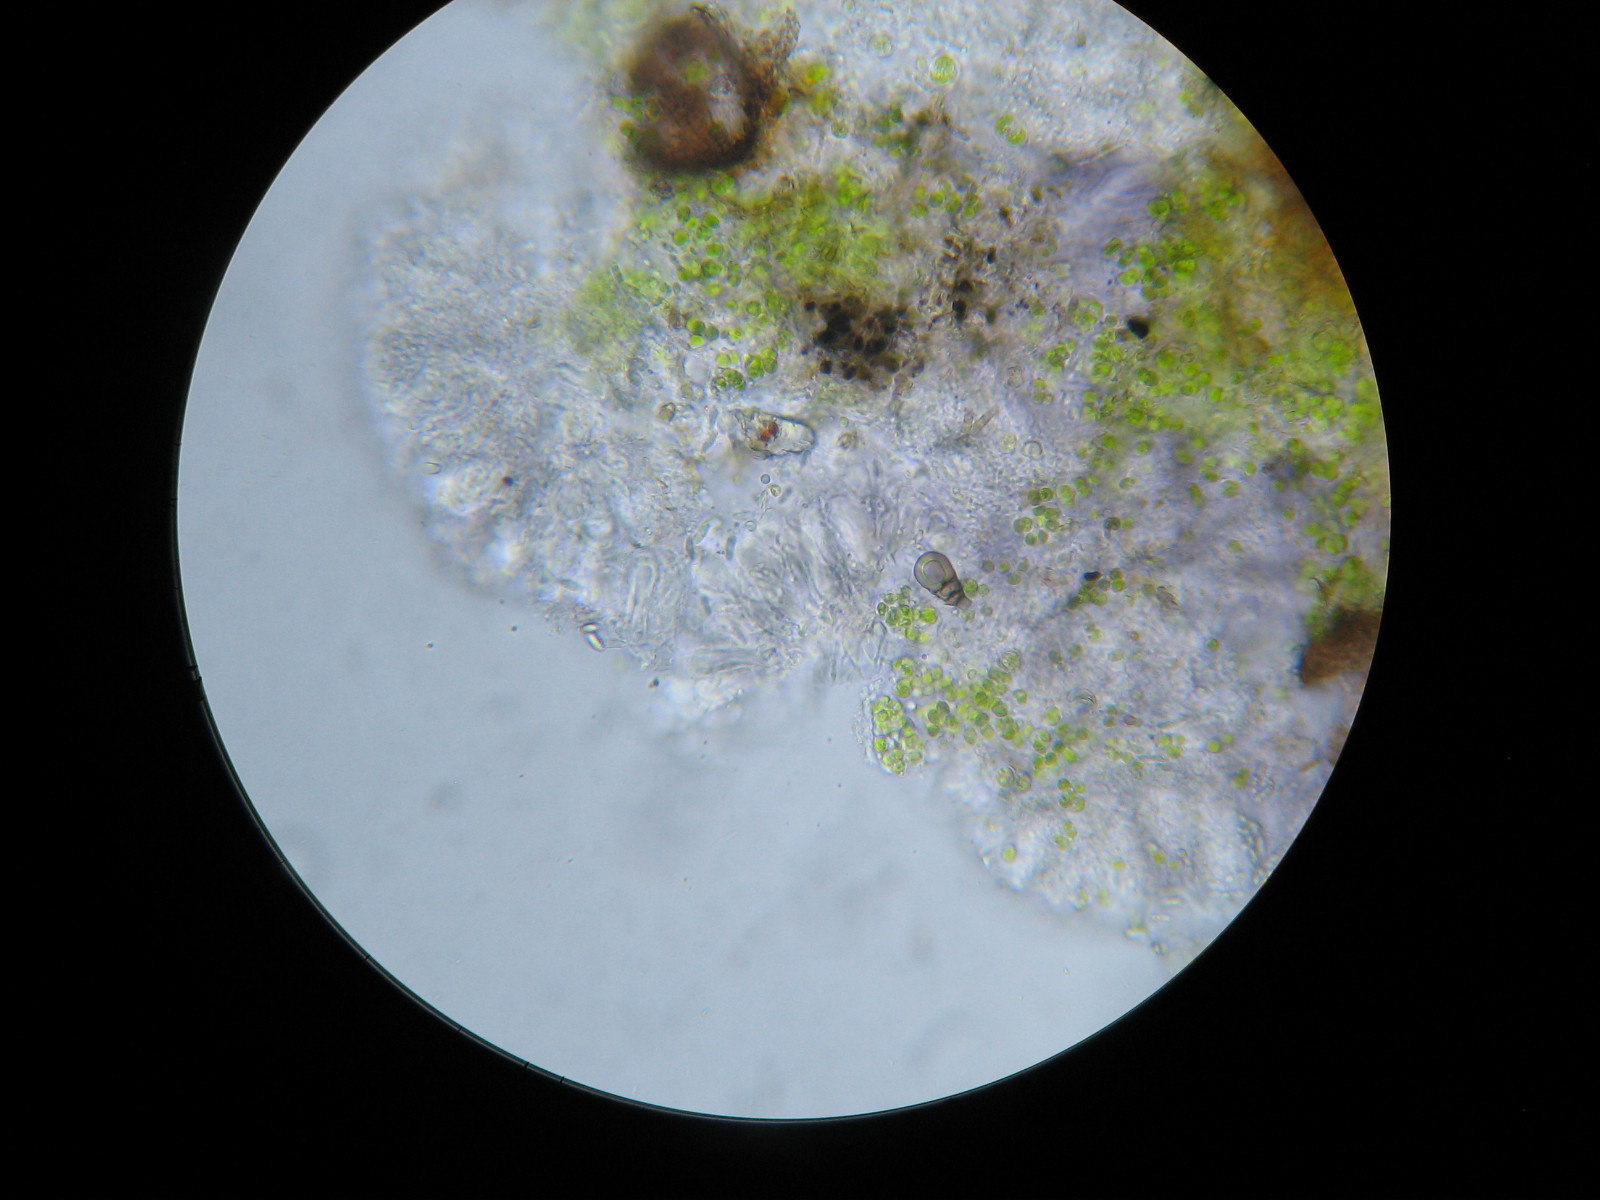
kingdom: Fungi
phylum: Ascomycota
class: Lecanoromycetes
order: Lecanorales
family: Byssolomataceae
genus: Micarea
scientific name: Micarea
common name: grøn kornlav
